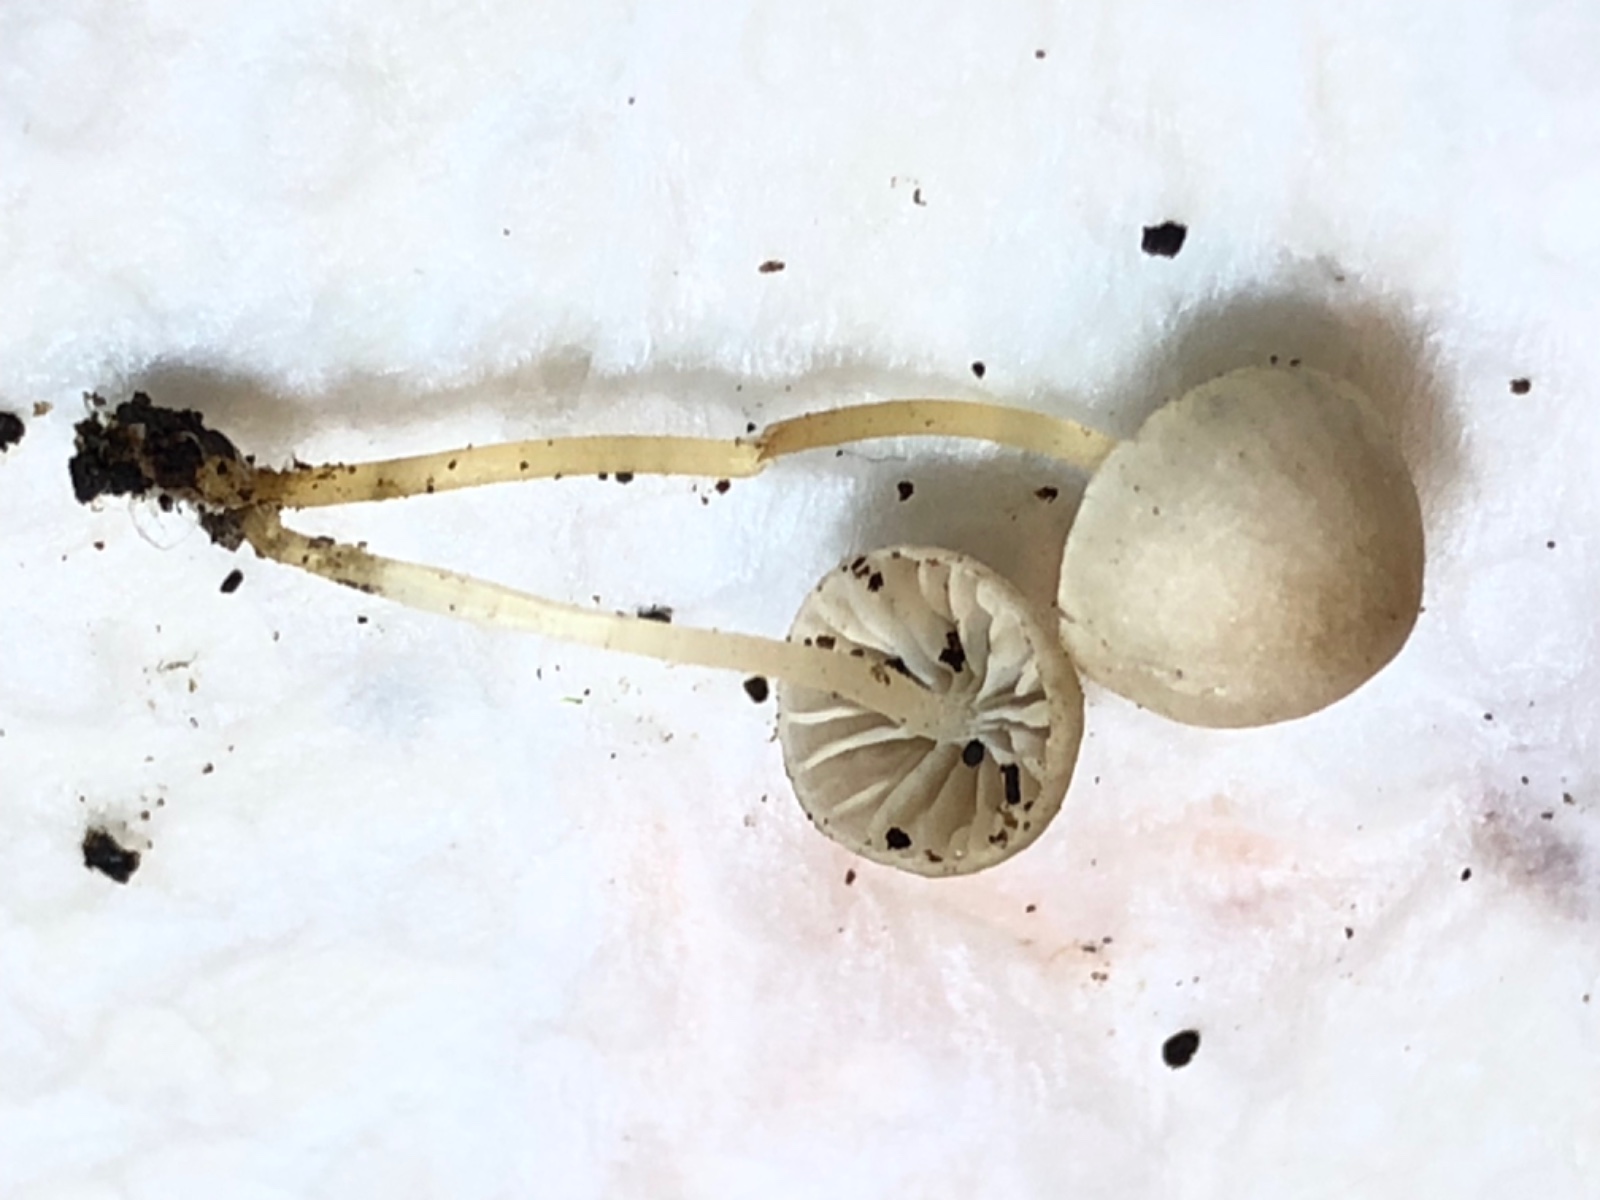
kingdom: Fungi
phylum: Basidiomycota
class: Agaricomycetes
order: Agaricales
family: Porotheleaceae
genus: Phloeomana
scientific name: Phloeomana
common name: huesvamp
